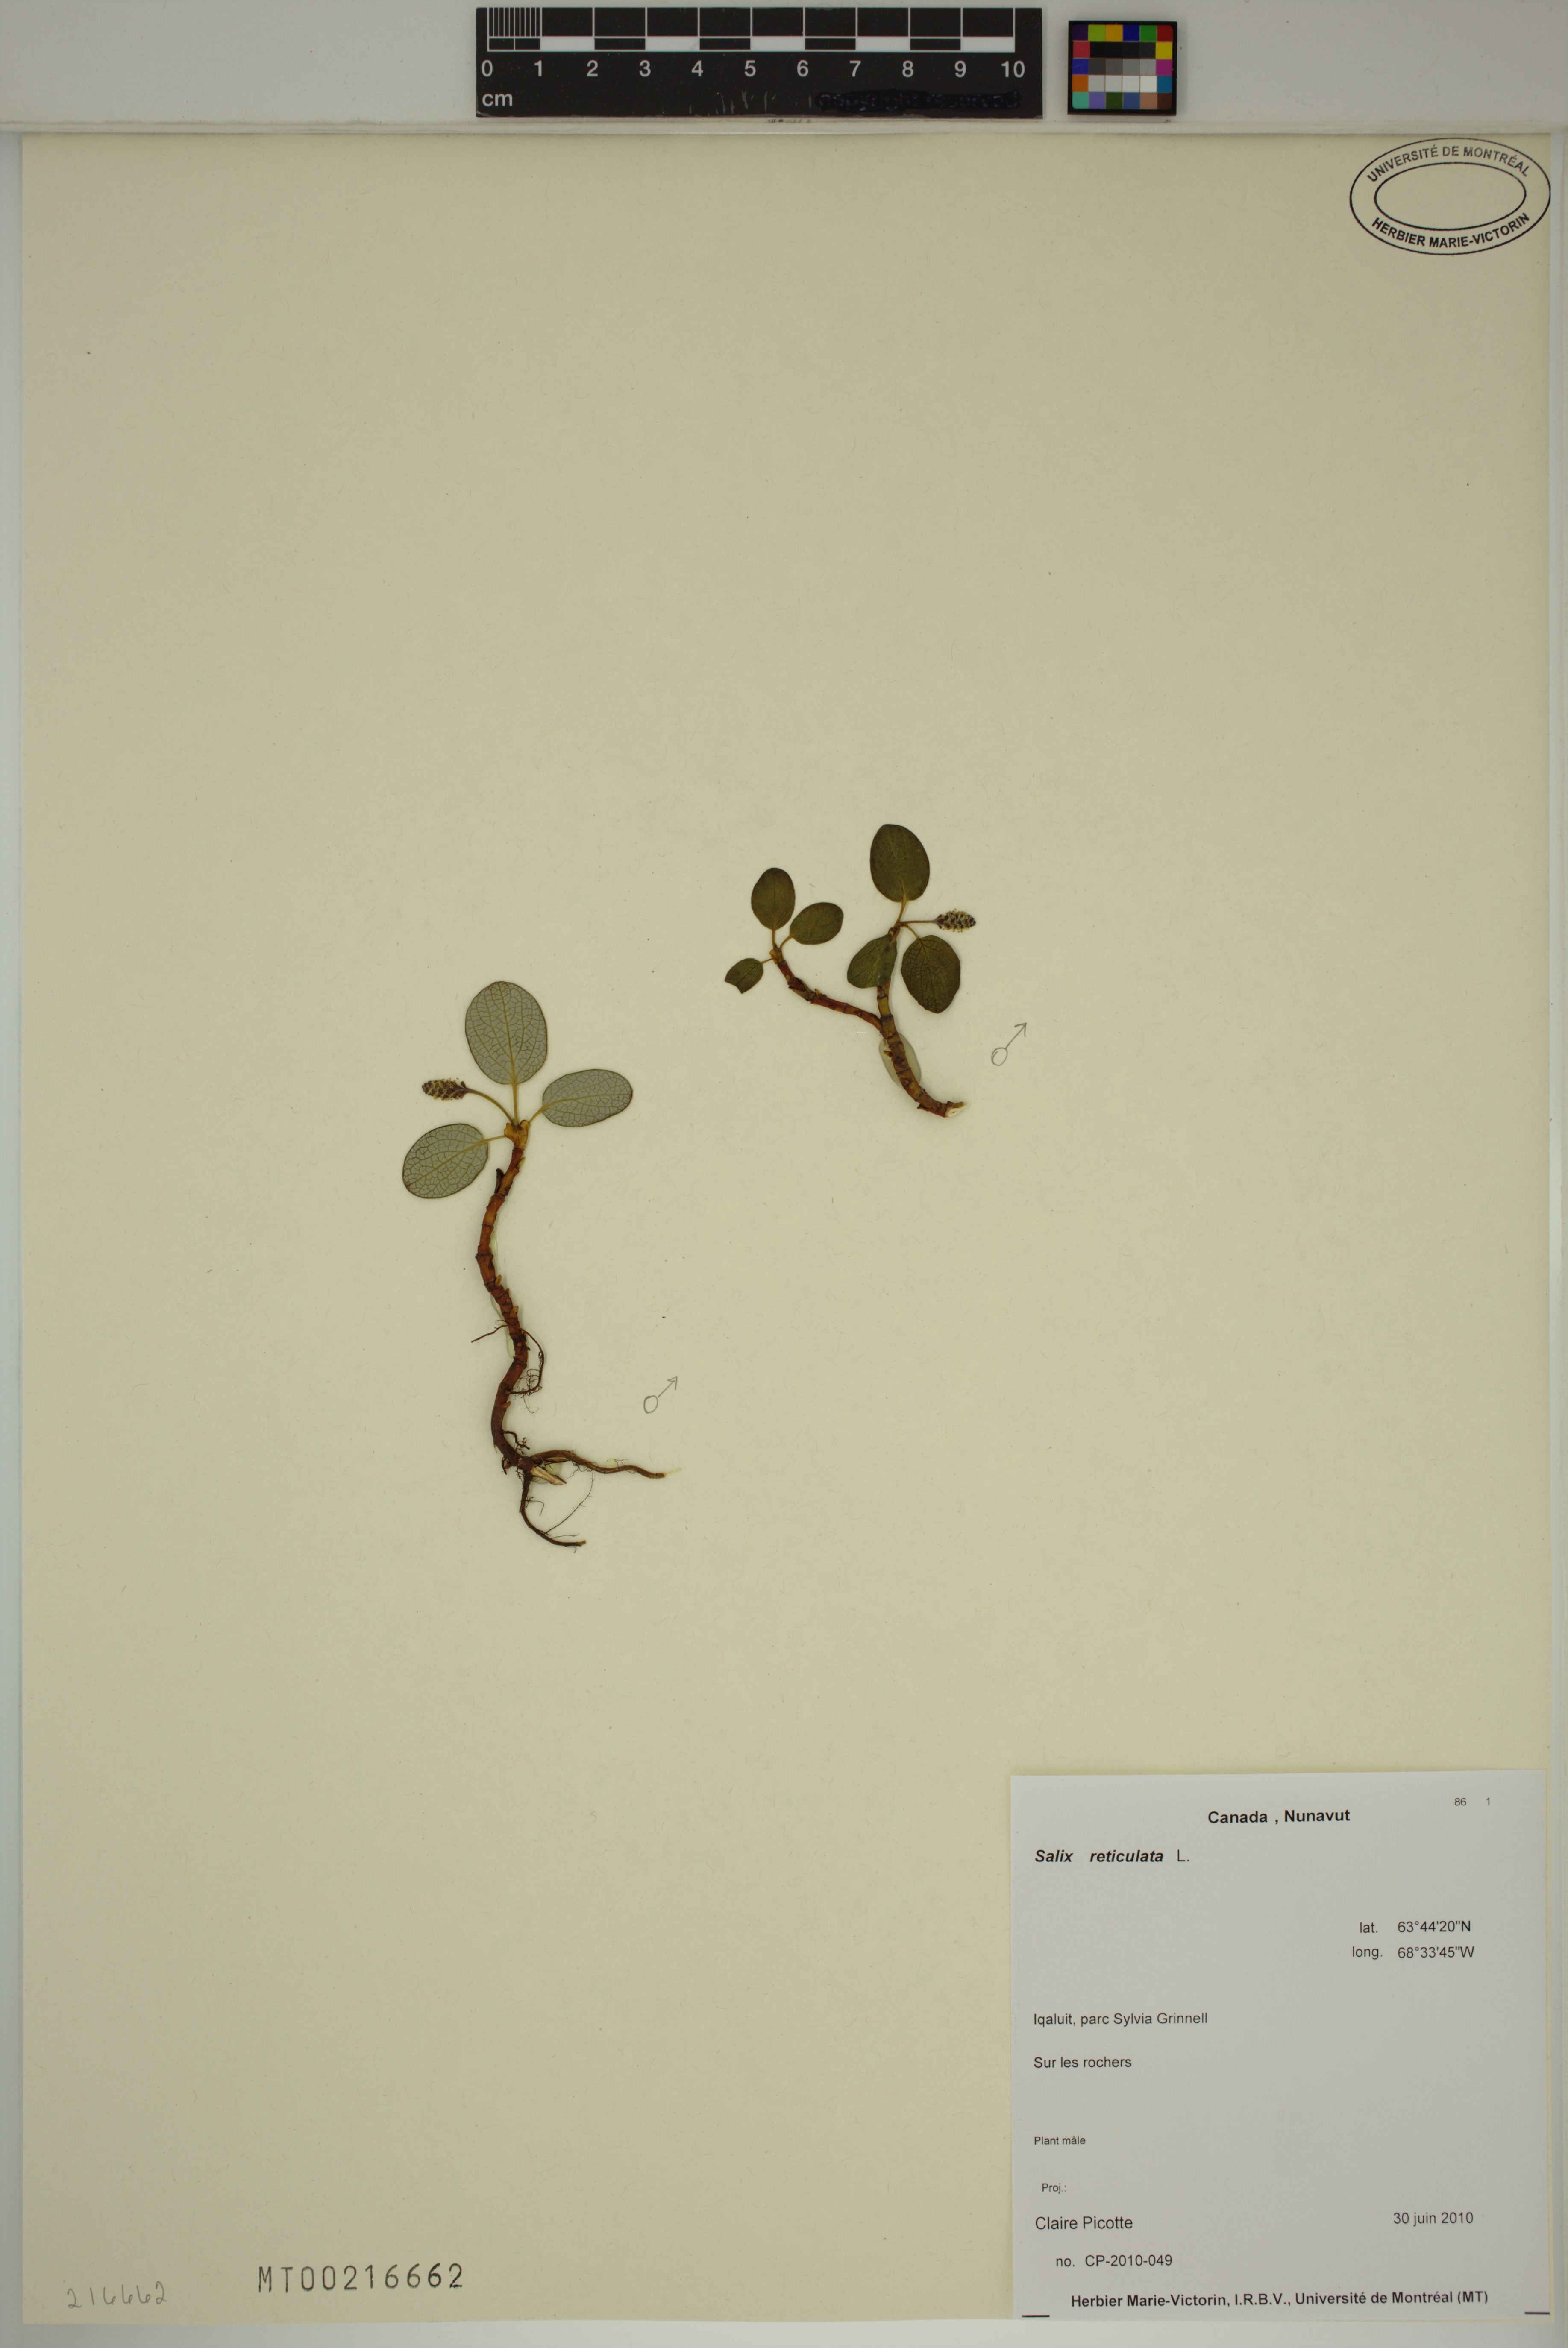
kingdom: Plantae
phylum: Tracheophyta
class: Magnoliopsida
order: Malpighiales
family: Salicaceae
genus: Salix
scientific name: Salix reticulata
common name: Net-leaved willow
